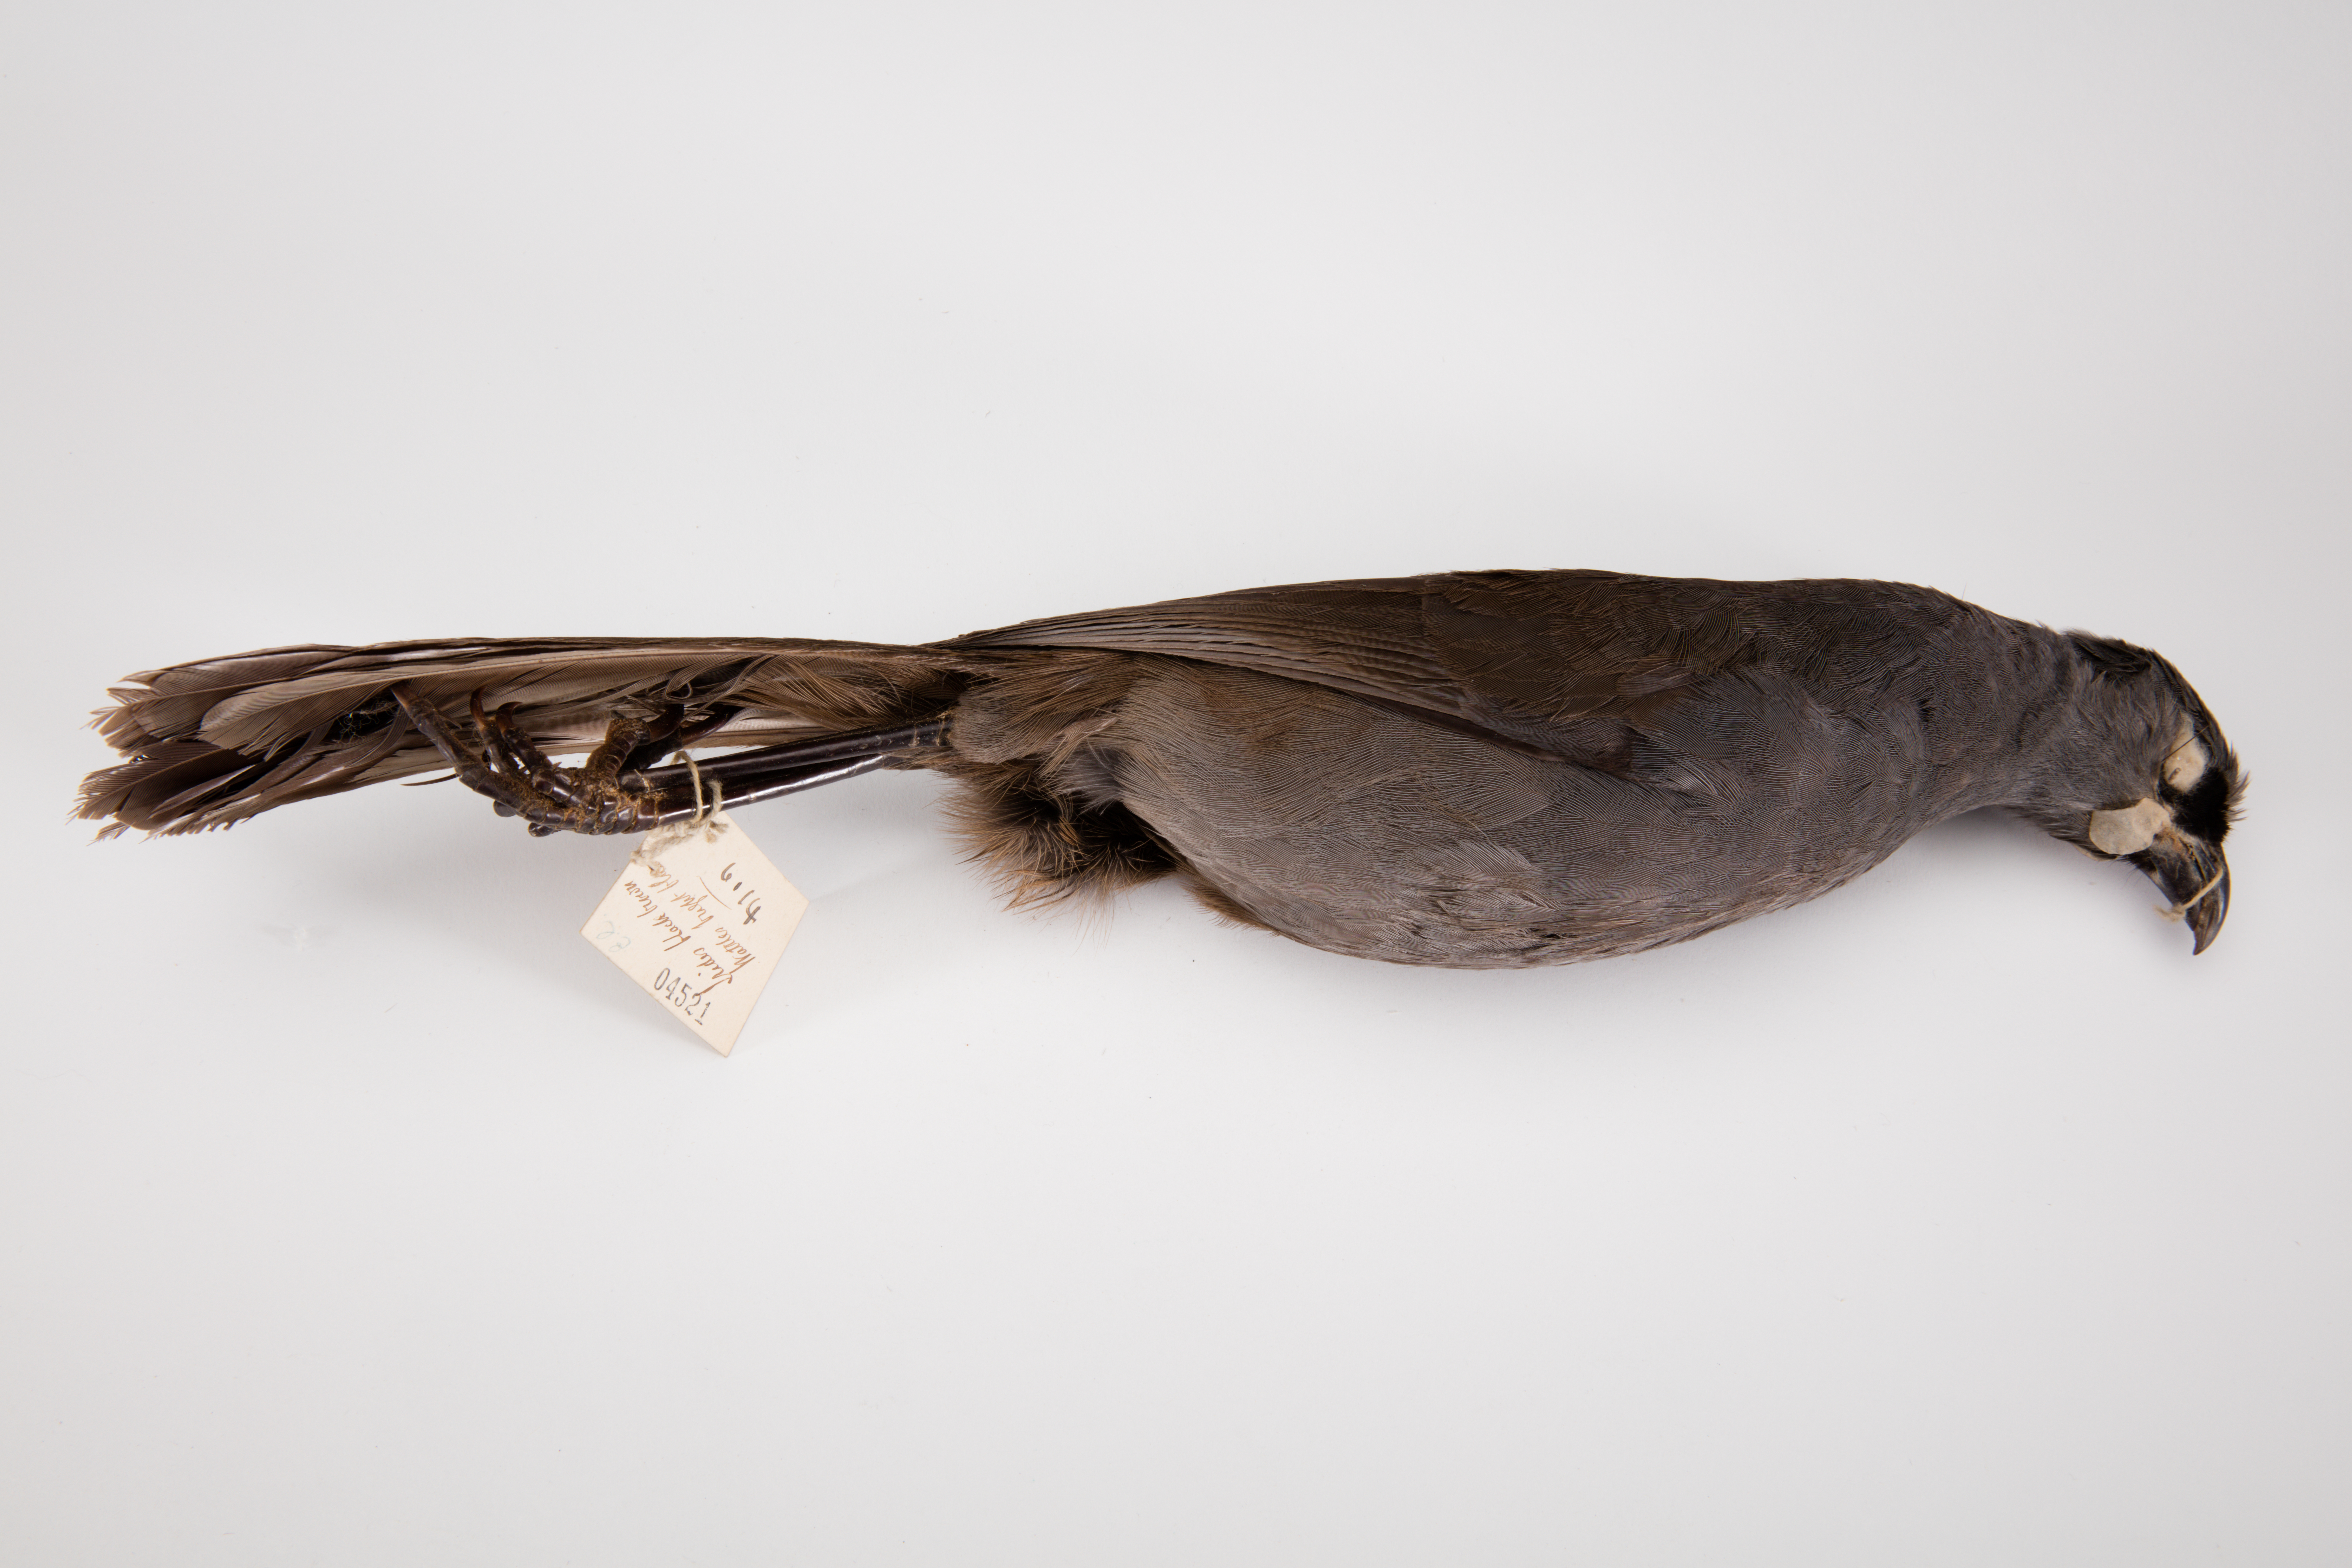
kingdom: Animalia
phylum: Chordata
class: Aves
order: Passeriformes
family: Callaeatidae
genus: Callaeas
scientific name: Callaeas cinereus
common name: South island kokako
